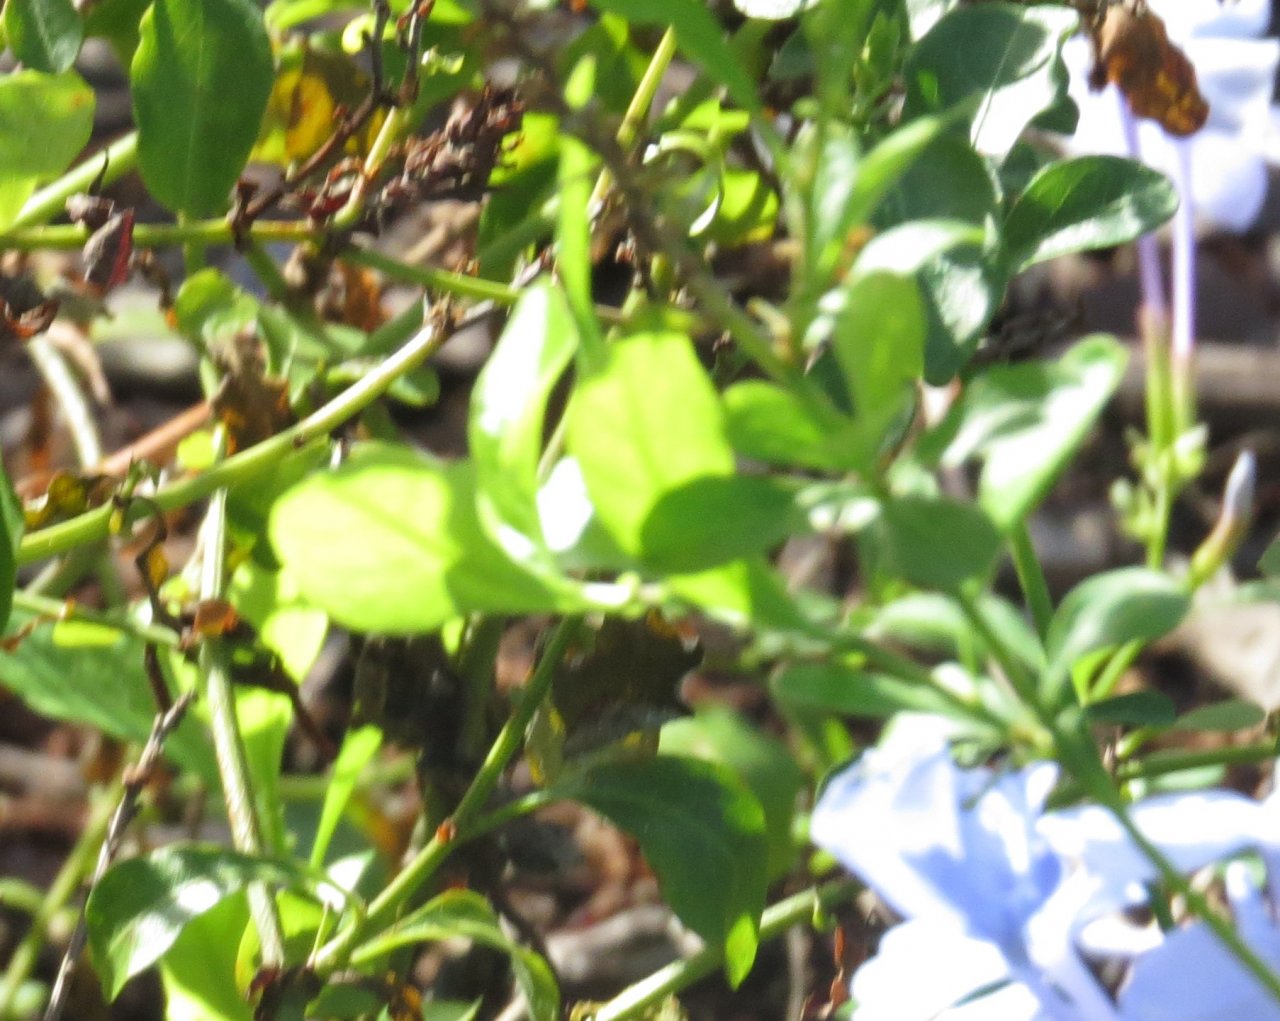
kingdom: Animalia
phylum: Arthropoda
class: Insecta
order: Lepidoptera
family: Pieridae
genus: Phoebis
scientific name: Phoebis sennae
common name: Cloudless Sulphur
